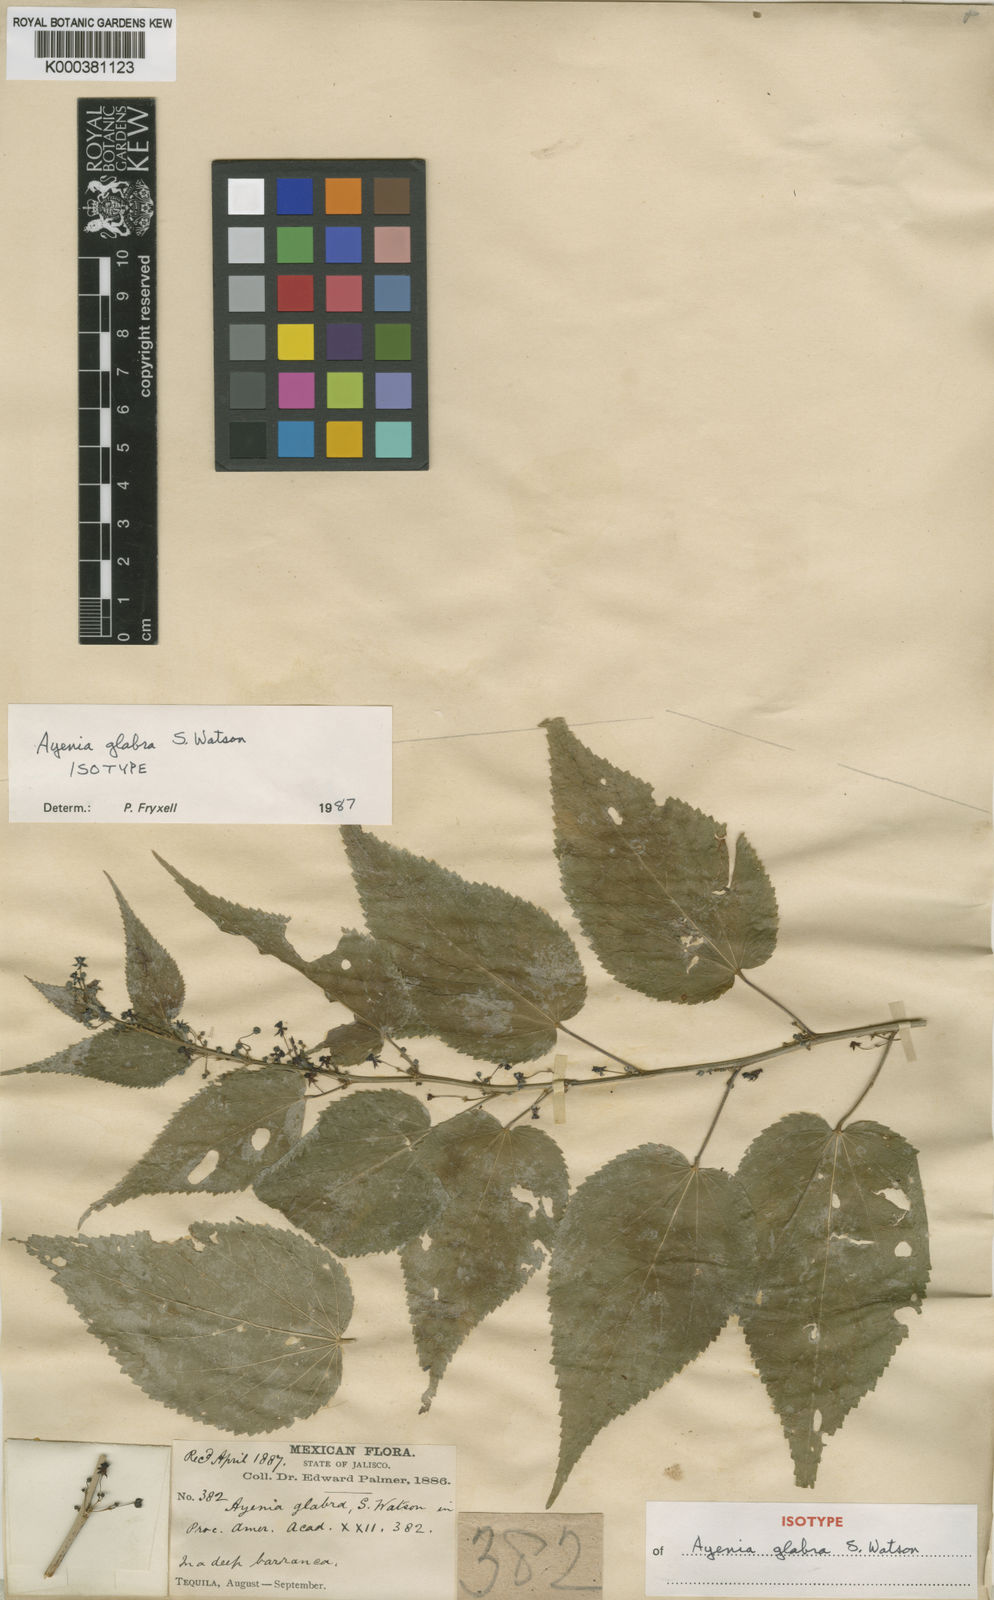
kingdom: Plantae
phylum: Tracheophyta
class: Magnoliopsida
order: Malvales
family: Malvaceae
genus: Ayenia
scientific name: Ayenia glabra
